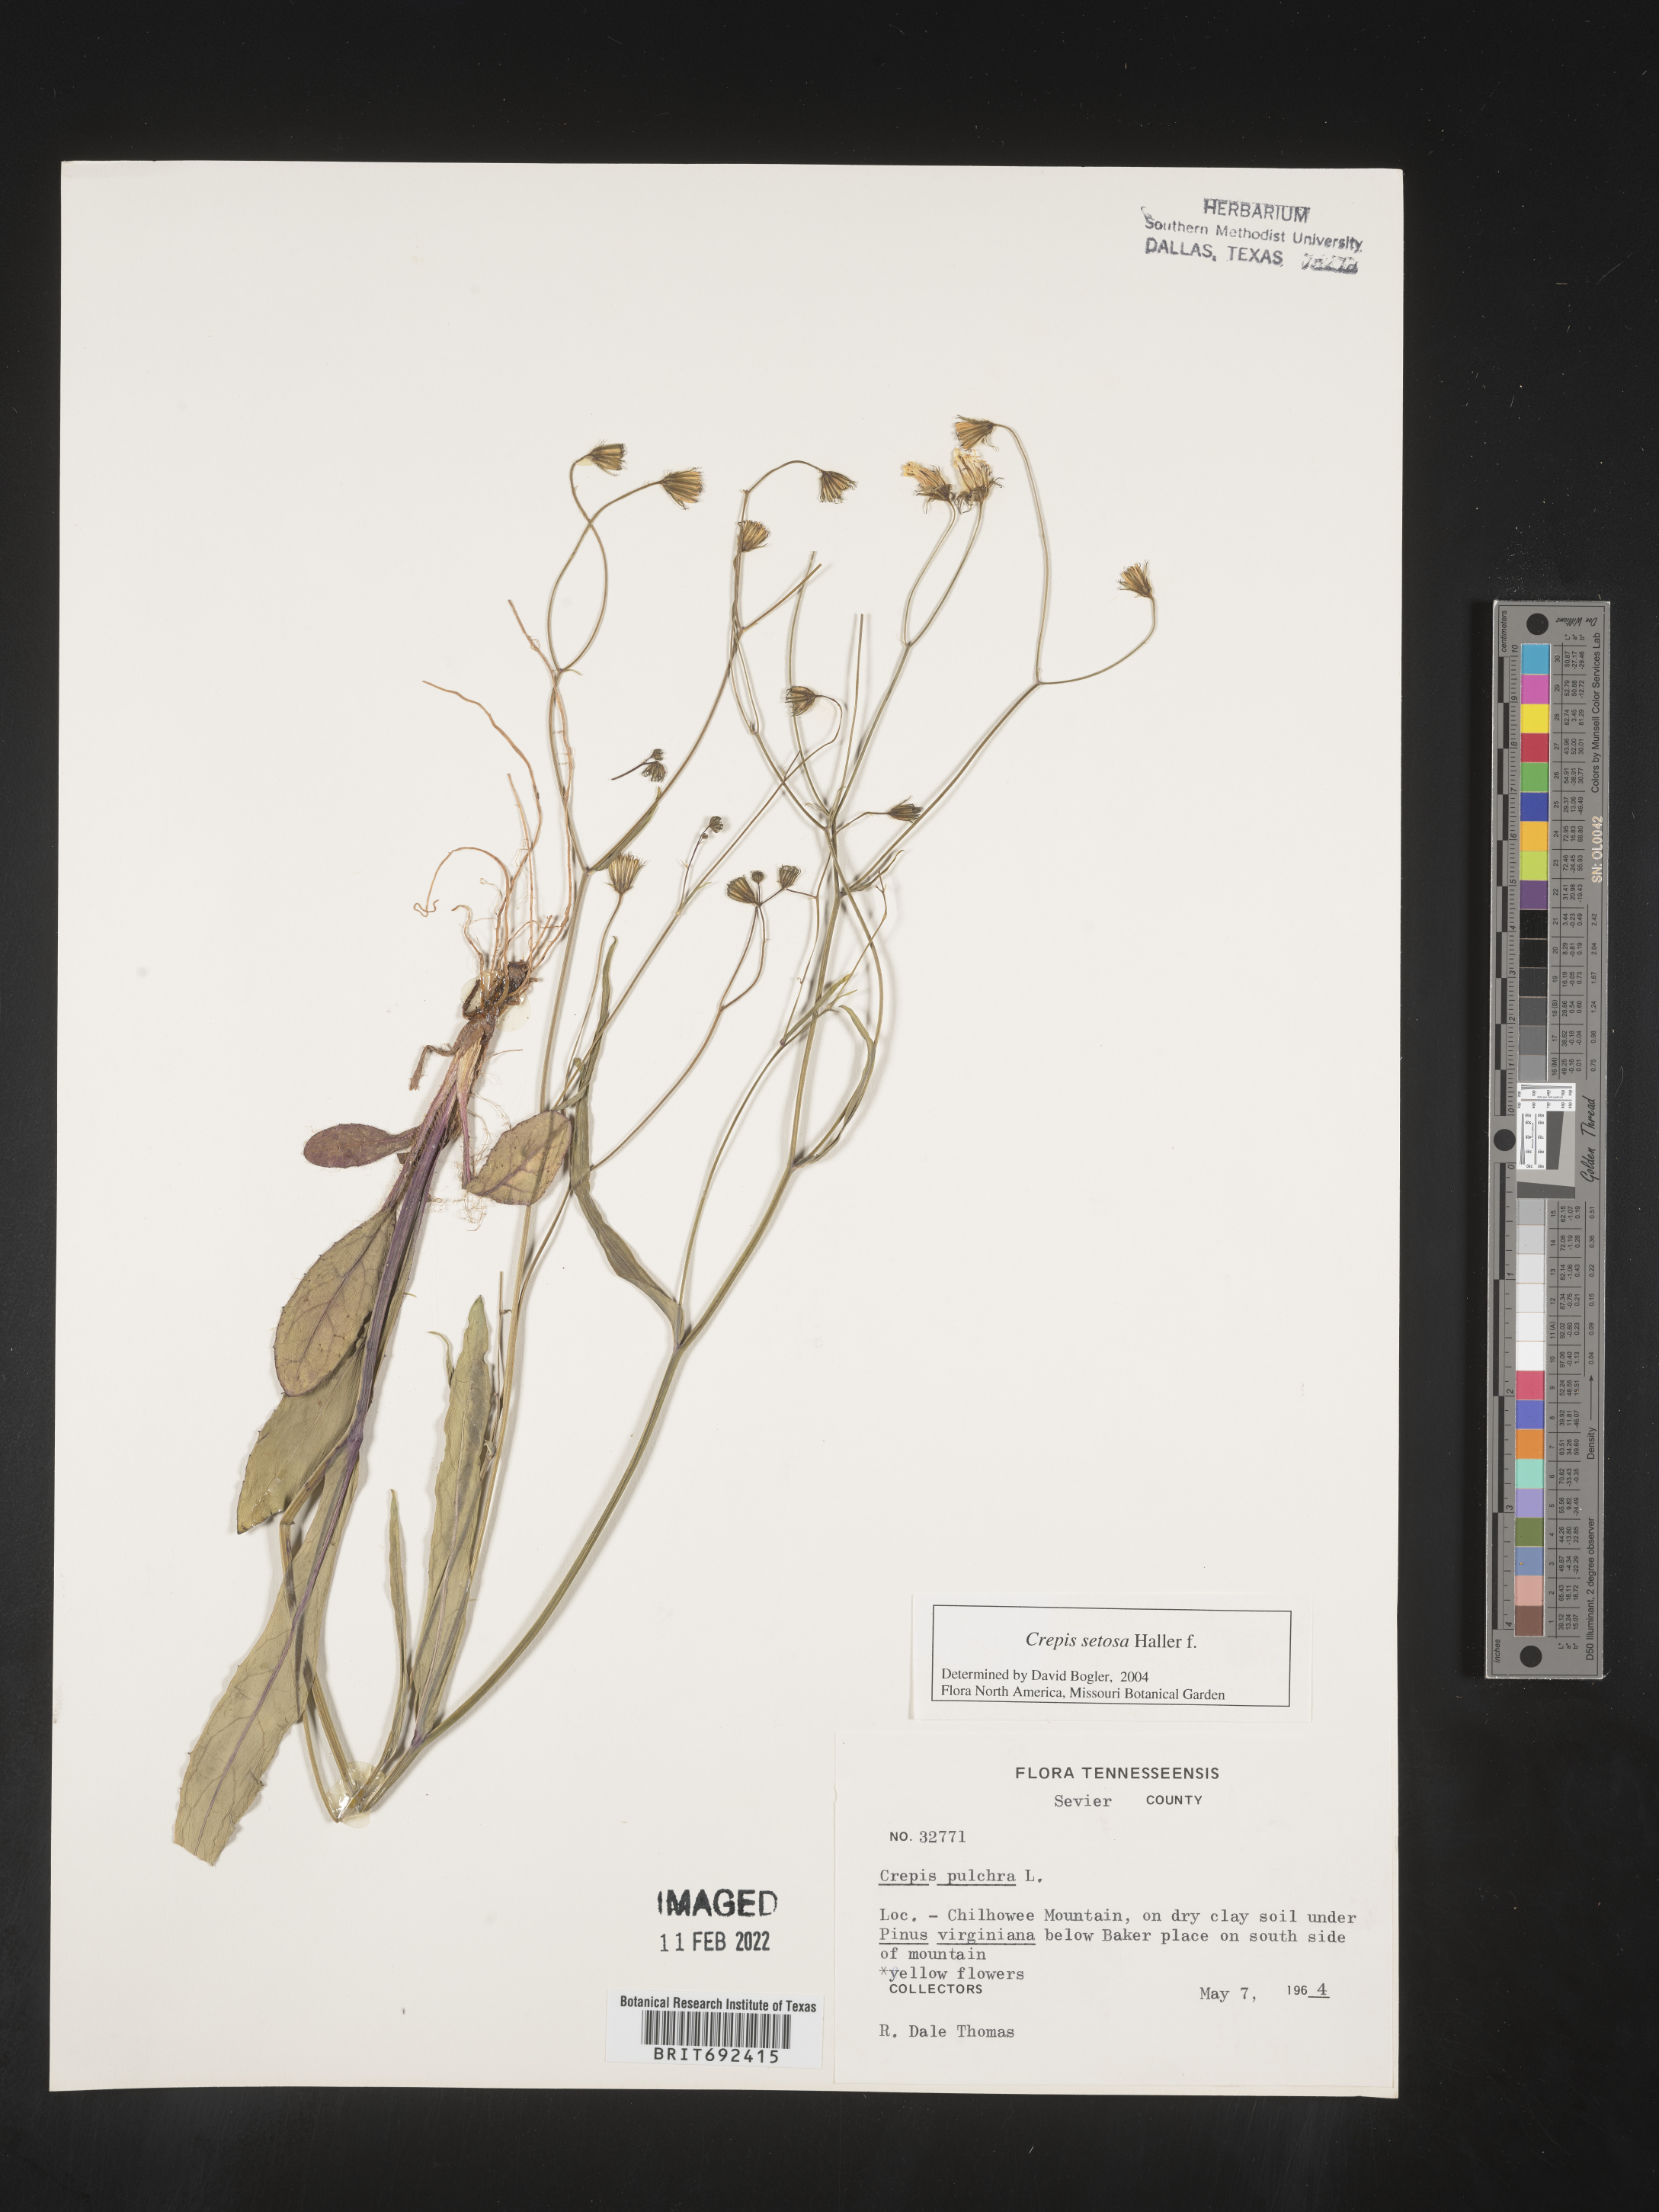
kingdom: Plantae
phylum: Tracheophyta
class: Magnoliopsida
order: Asterales
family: Asteraceae
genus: Crepis
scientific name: Crepis
